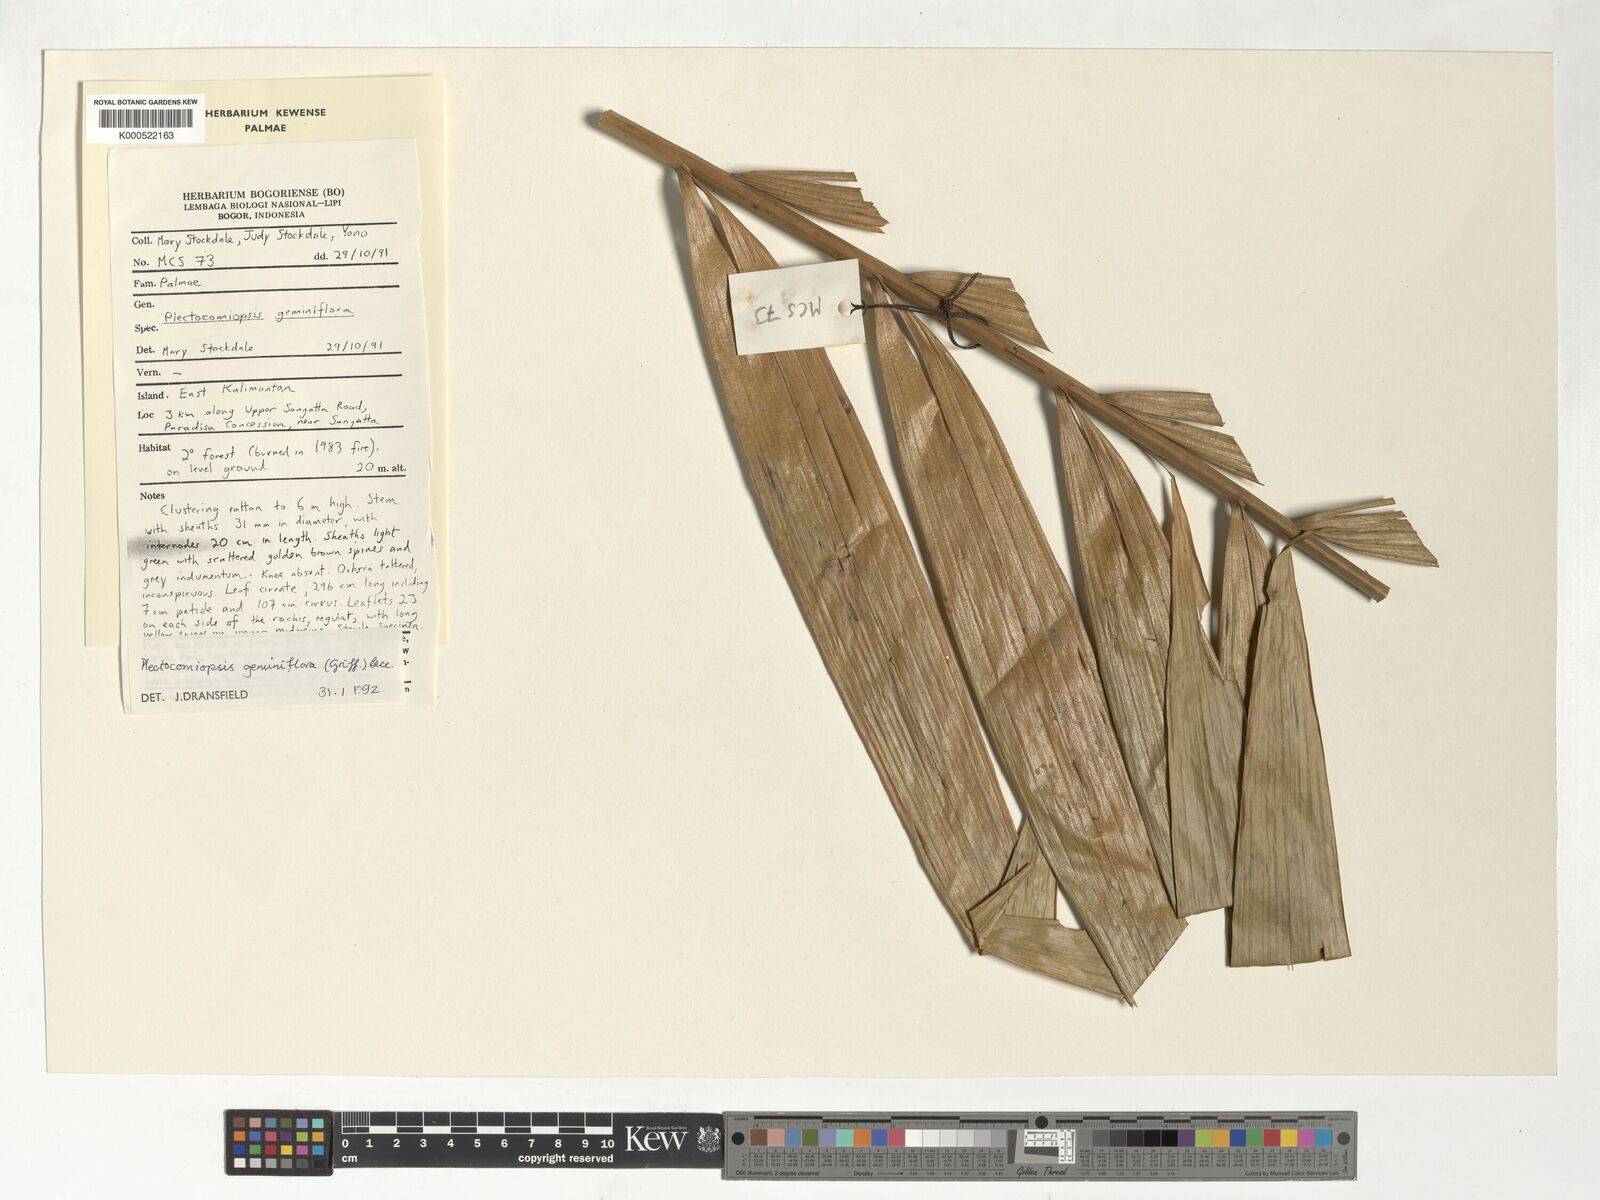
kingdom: Plantae
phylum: Tracheophyta
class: Liliopsida
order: Arecales
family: Arecaceae
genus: Plectocomiopsis
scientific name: Plectocomiopsis geminiflora
